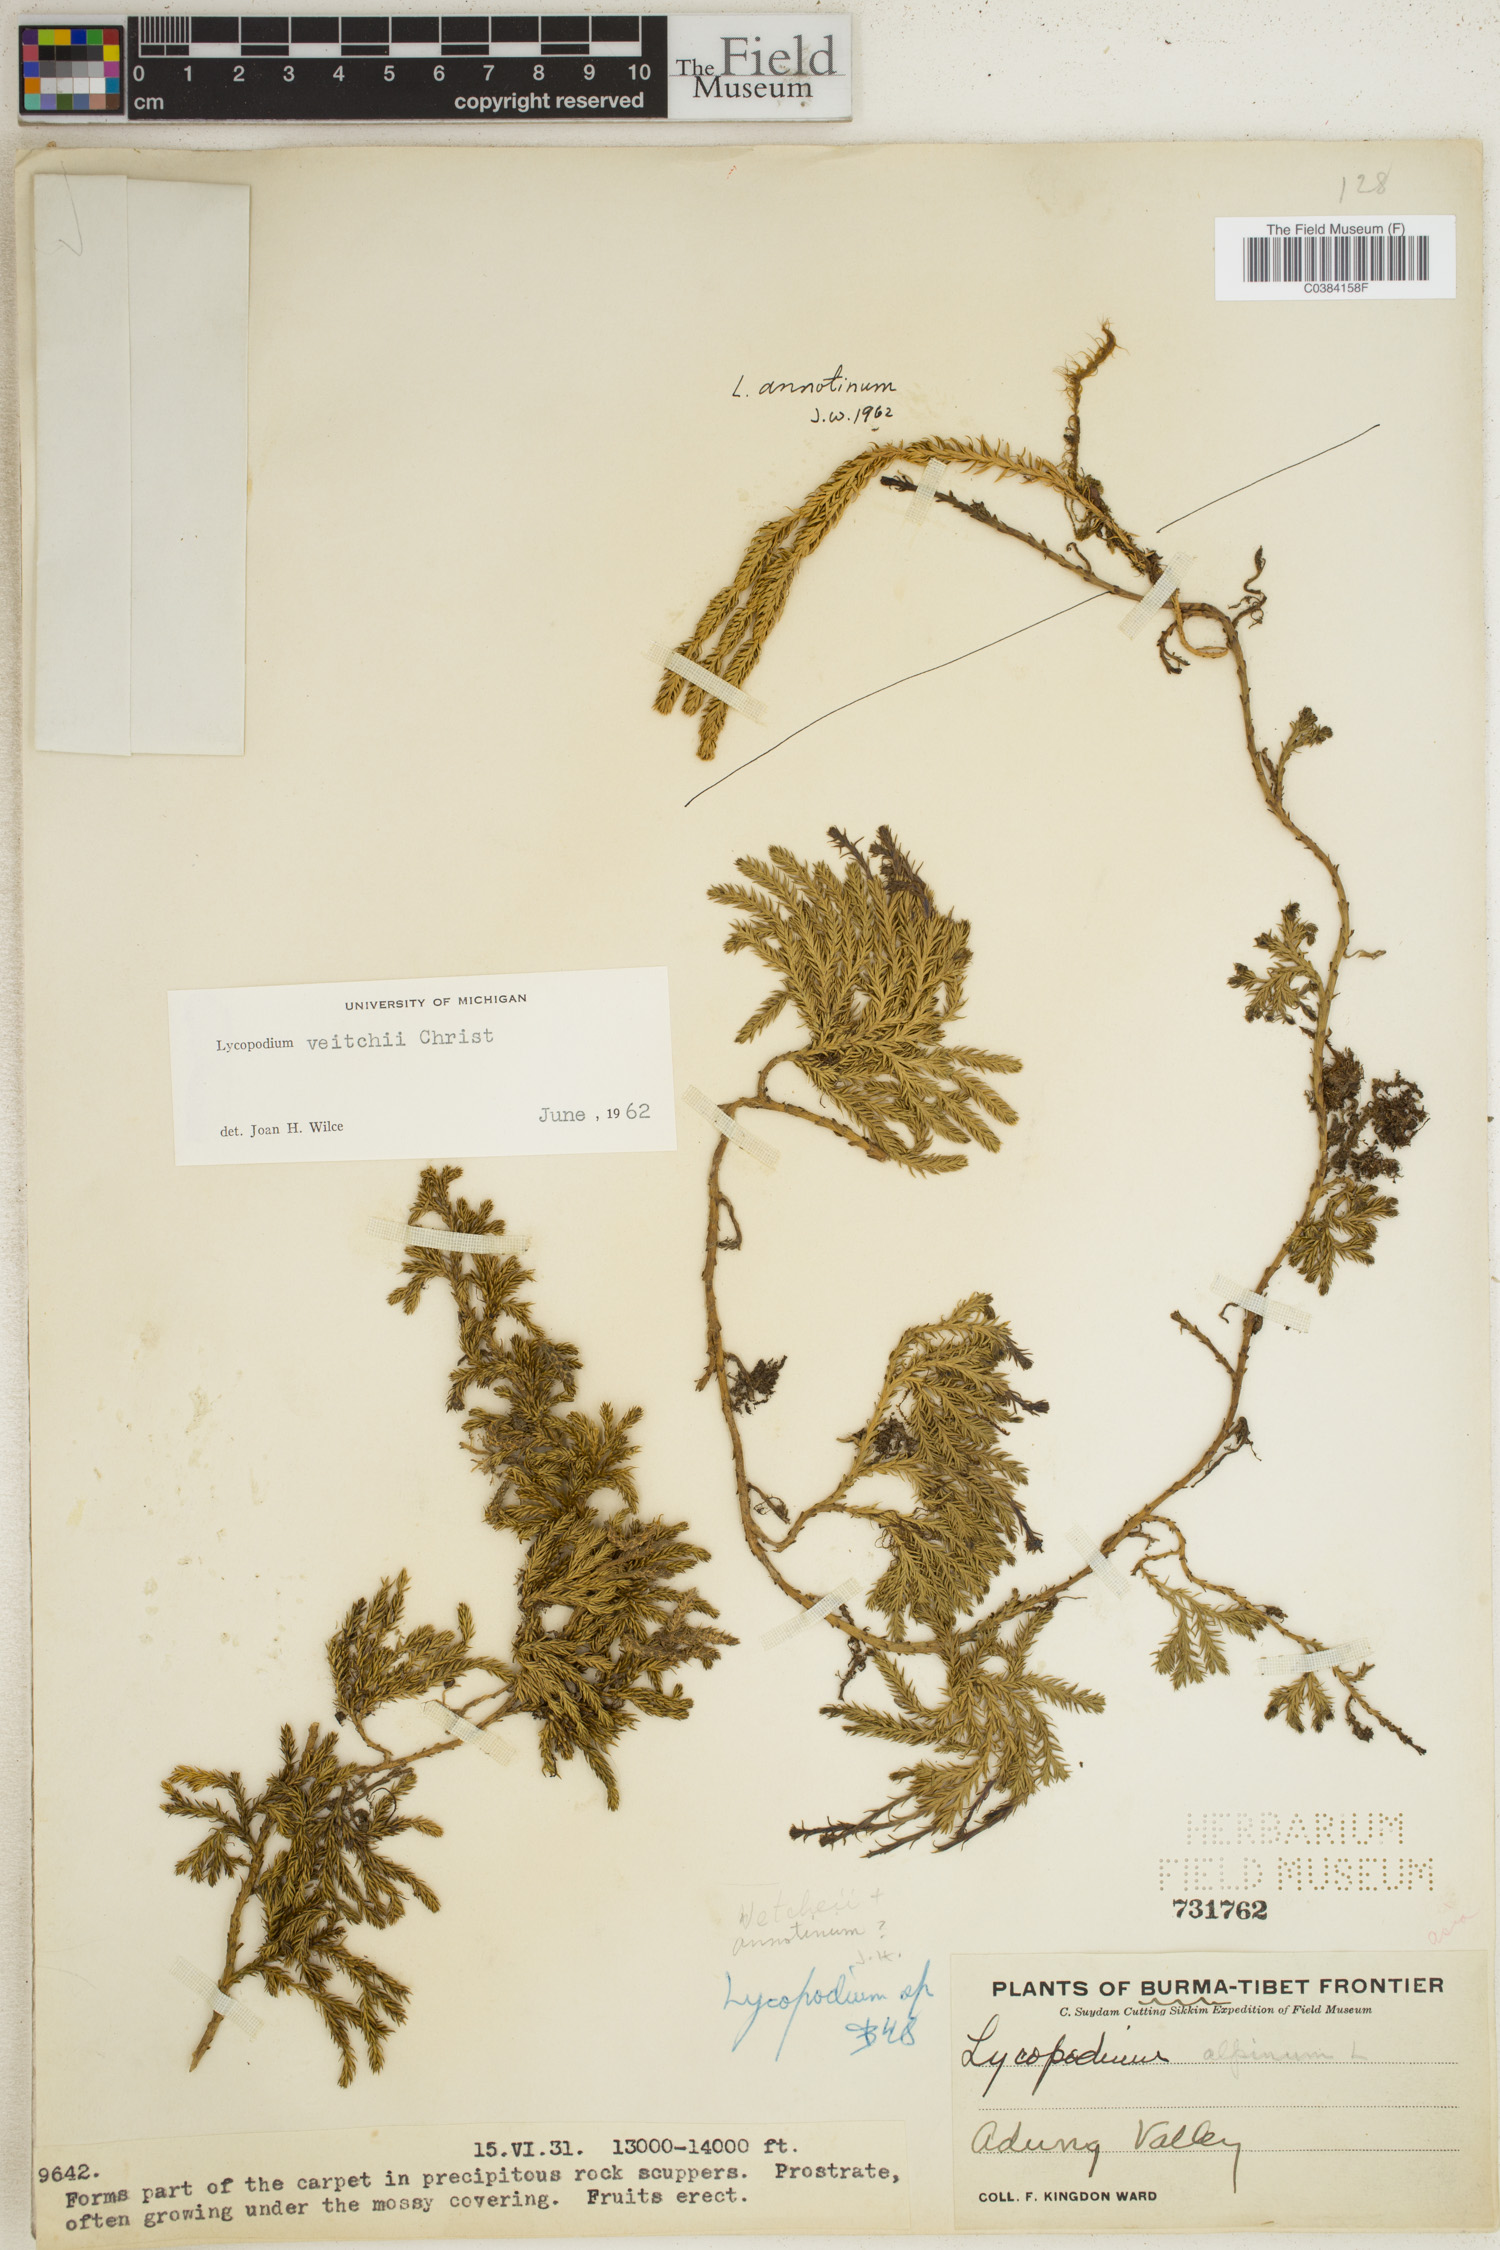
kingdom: Plantae
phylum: Tracheophyta
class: Lycopodiopsida
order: Lycopodiales
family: Lycopodiaceae
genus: Diphasiastrum
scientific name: Diphasiastrum veitchii
